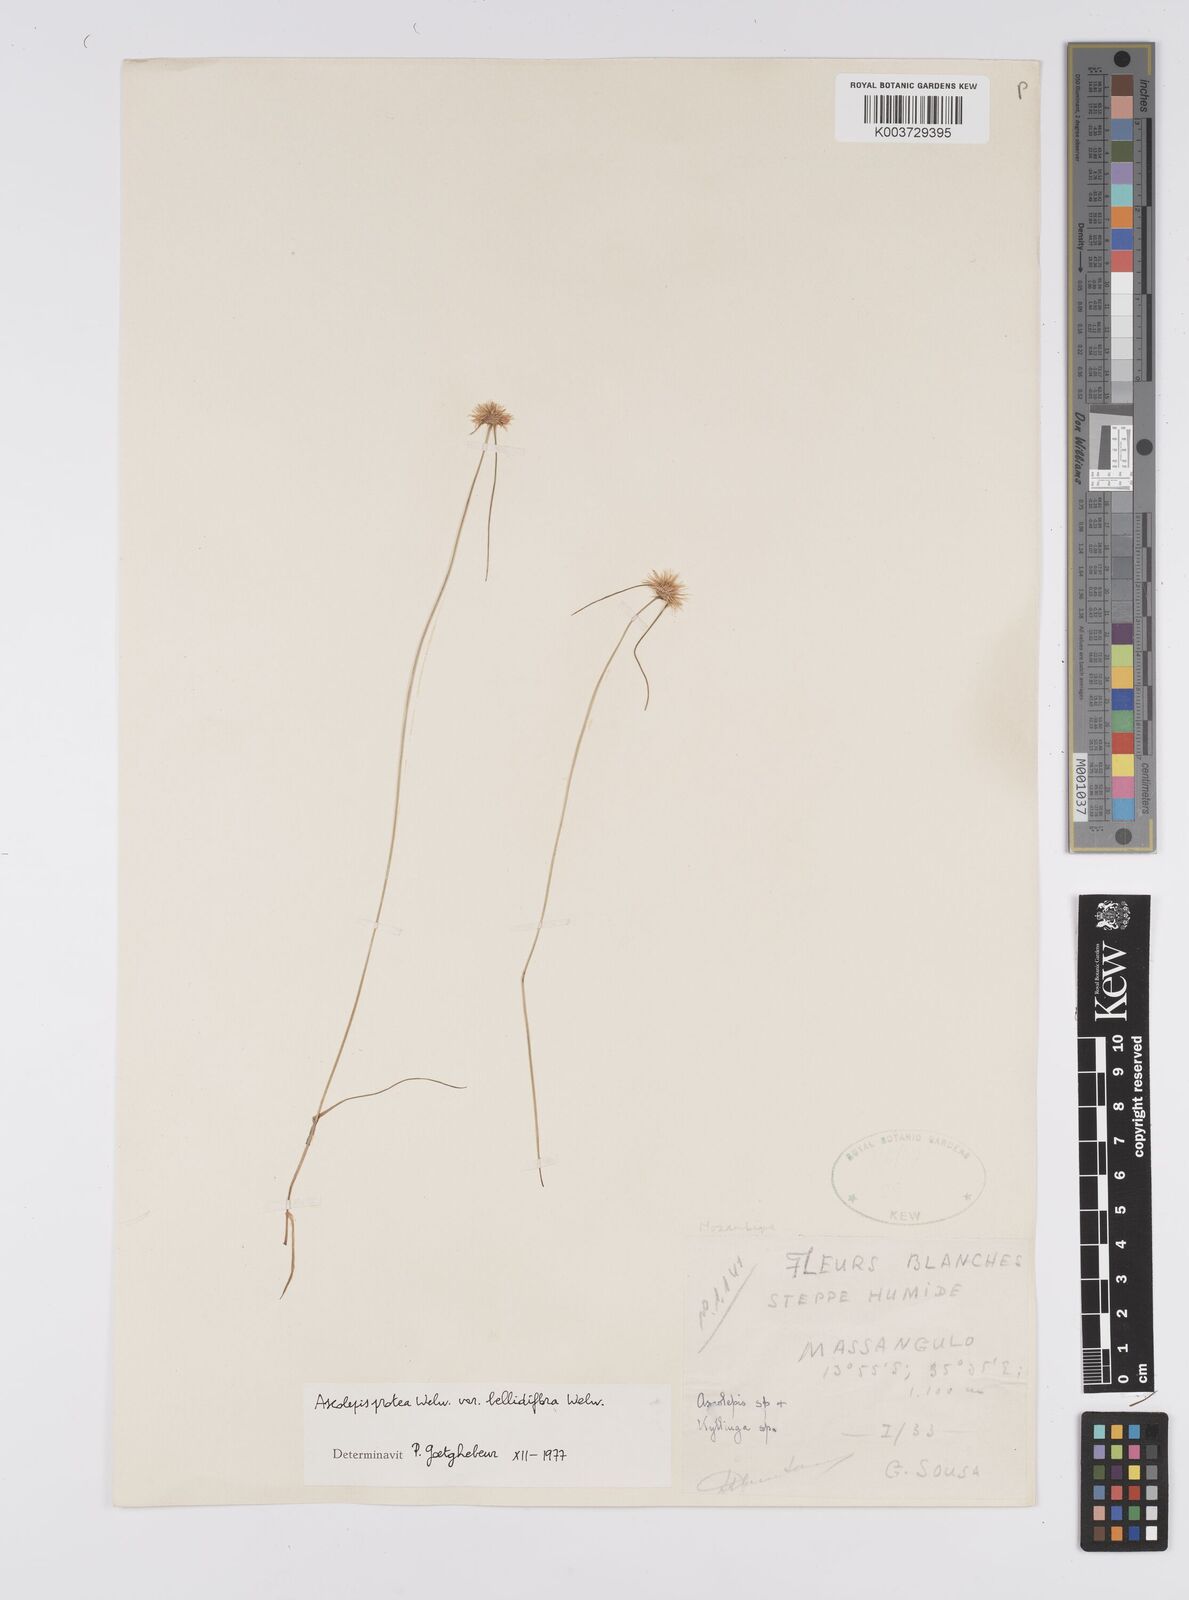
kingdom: Plantae
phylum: Tracheophyta
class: Liliopsida
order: Poales
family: Cyperaceae
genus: Cyperus
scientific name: Cyperus proteus
